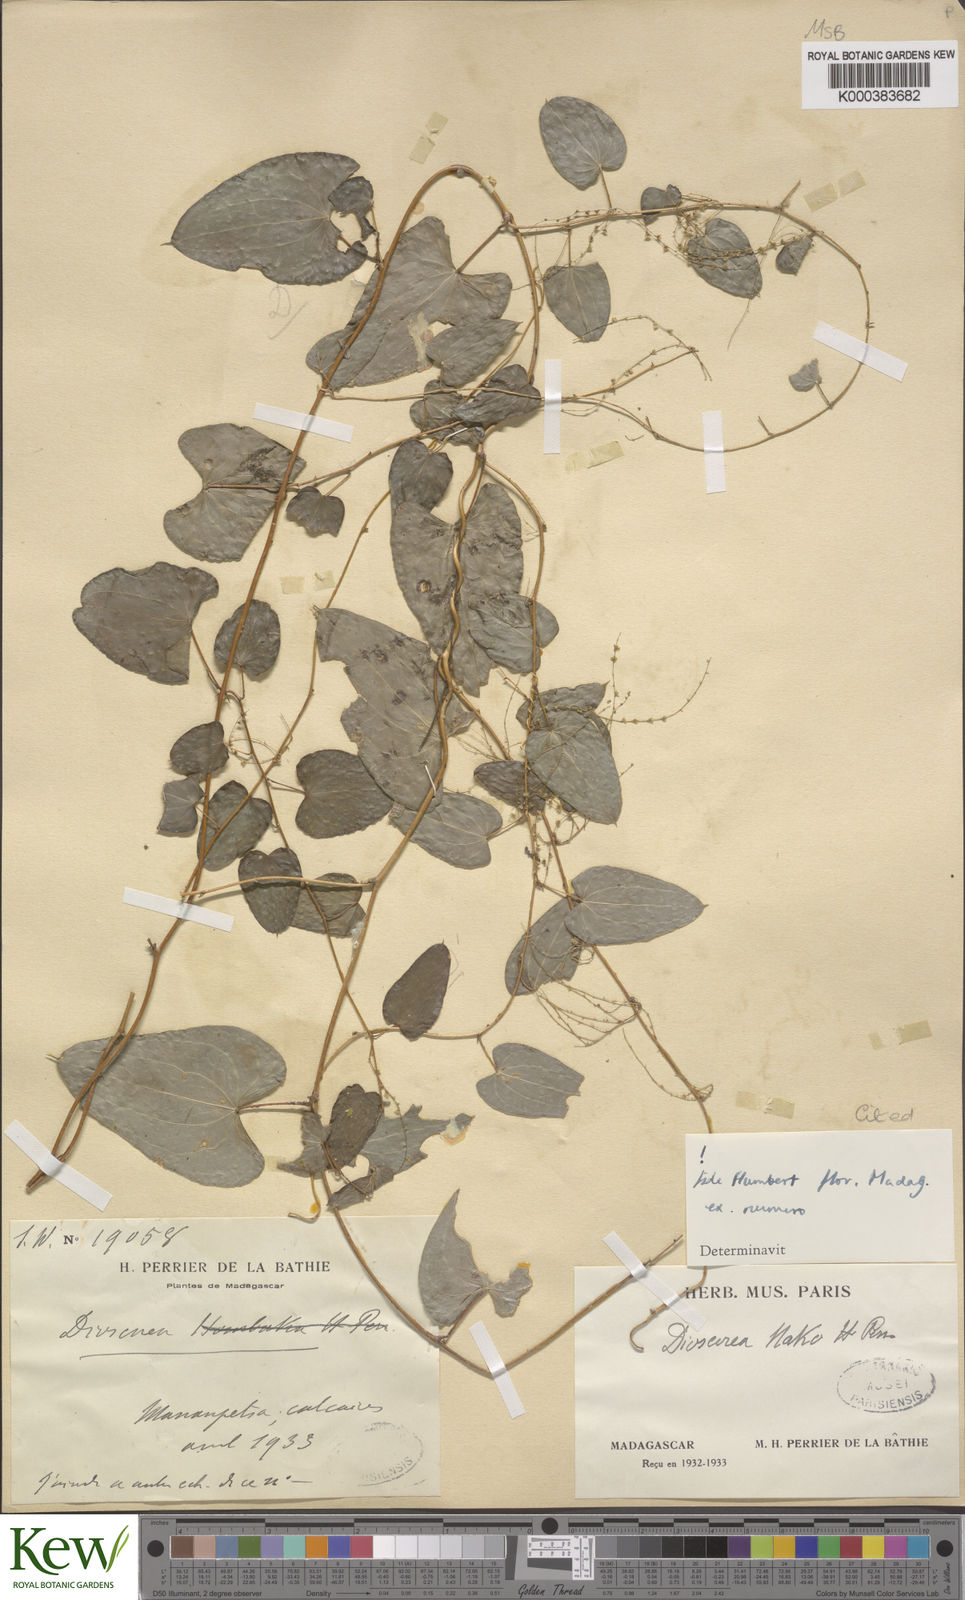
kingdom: Plantae
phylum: Tracheophyta
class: Liliopsida
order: Dioscoreales
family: Dioscoreaceae
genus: Dioscorea
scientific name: Dioscorea
